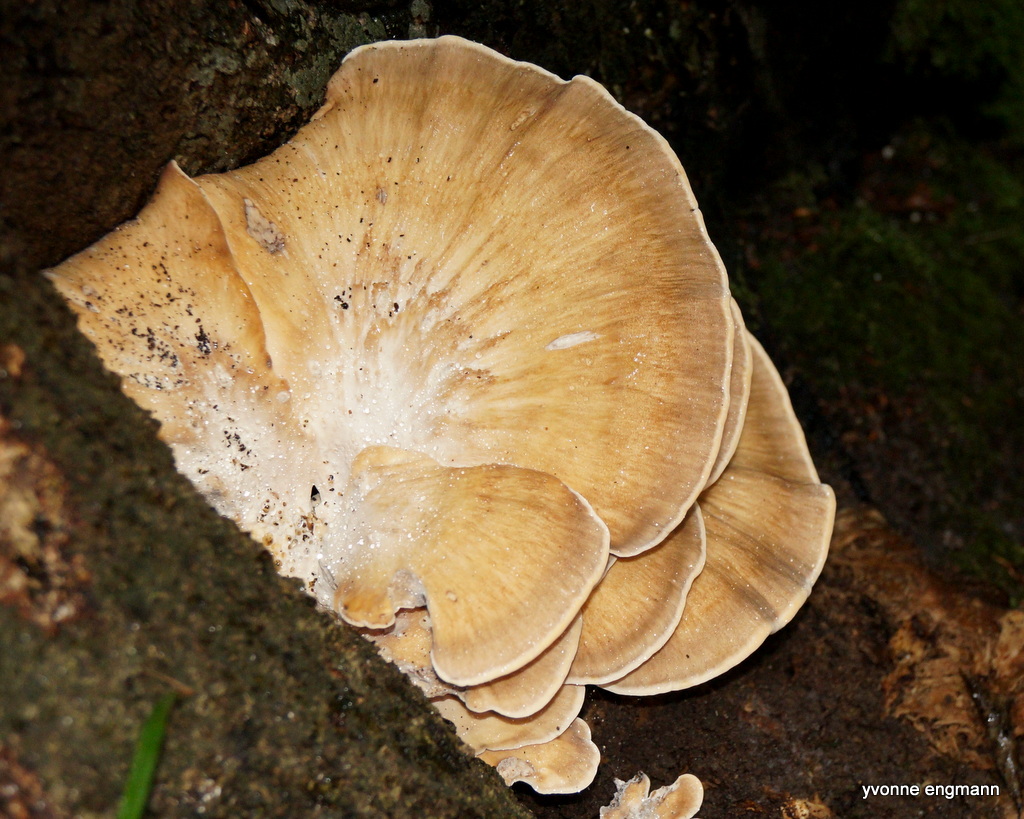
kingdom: Fungi
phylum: Basidiomycota
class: Agaricomycetes
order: Polyporales
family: Meripilaceae
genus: Meripilus
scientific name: Meripilus giganteus
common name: kæmpeporesvamp
